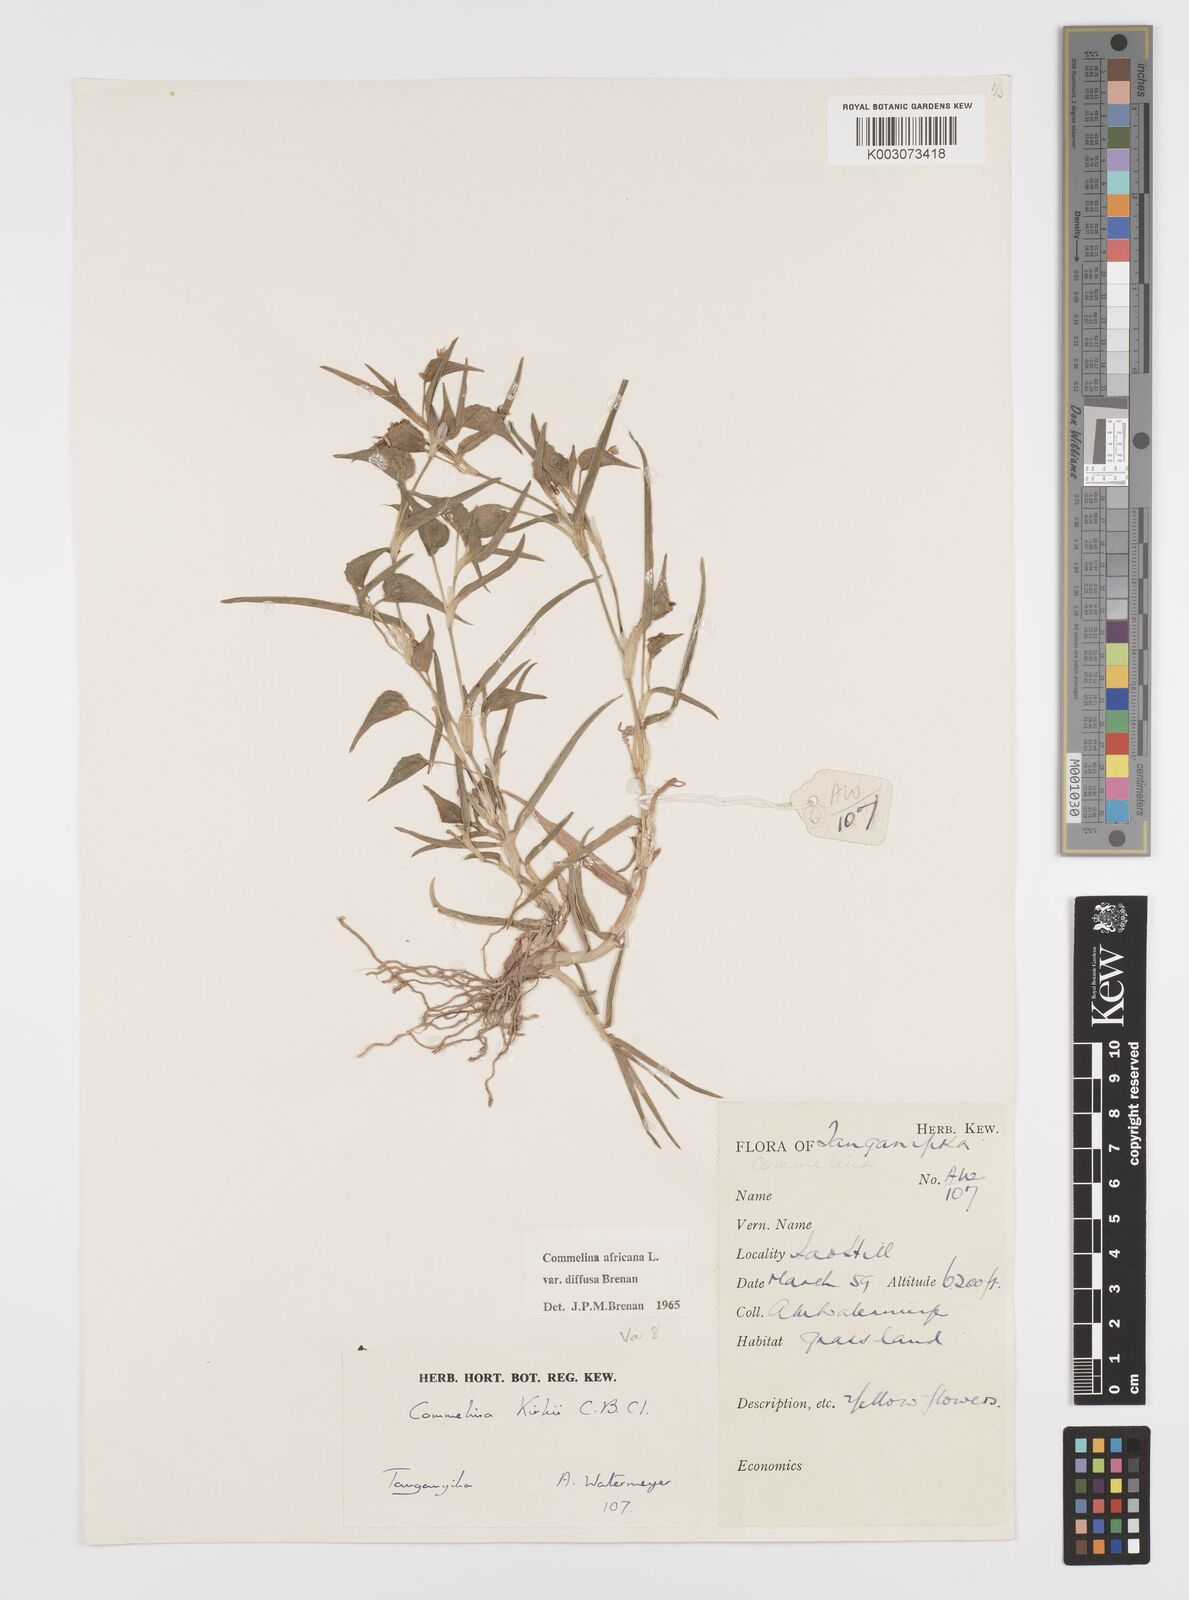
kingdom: Plantae
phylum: Tracheophyta
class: Liliopsida
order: Commelinales
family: Commelinaceae
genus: Commelina
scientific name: Commelina africana
